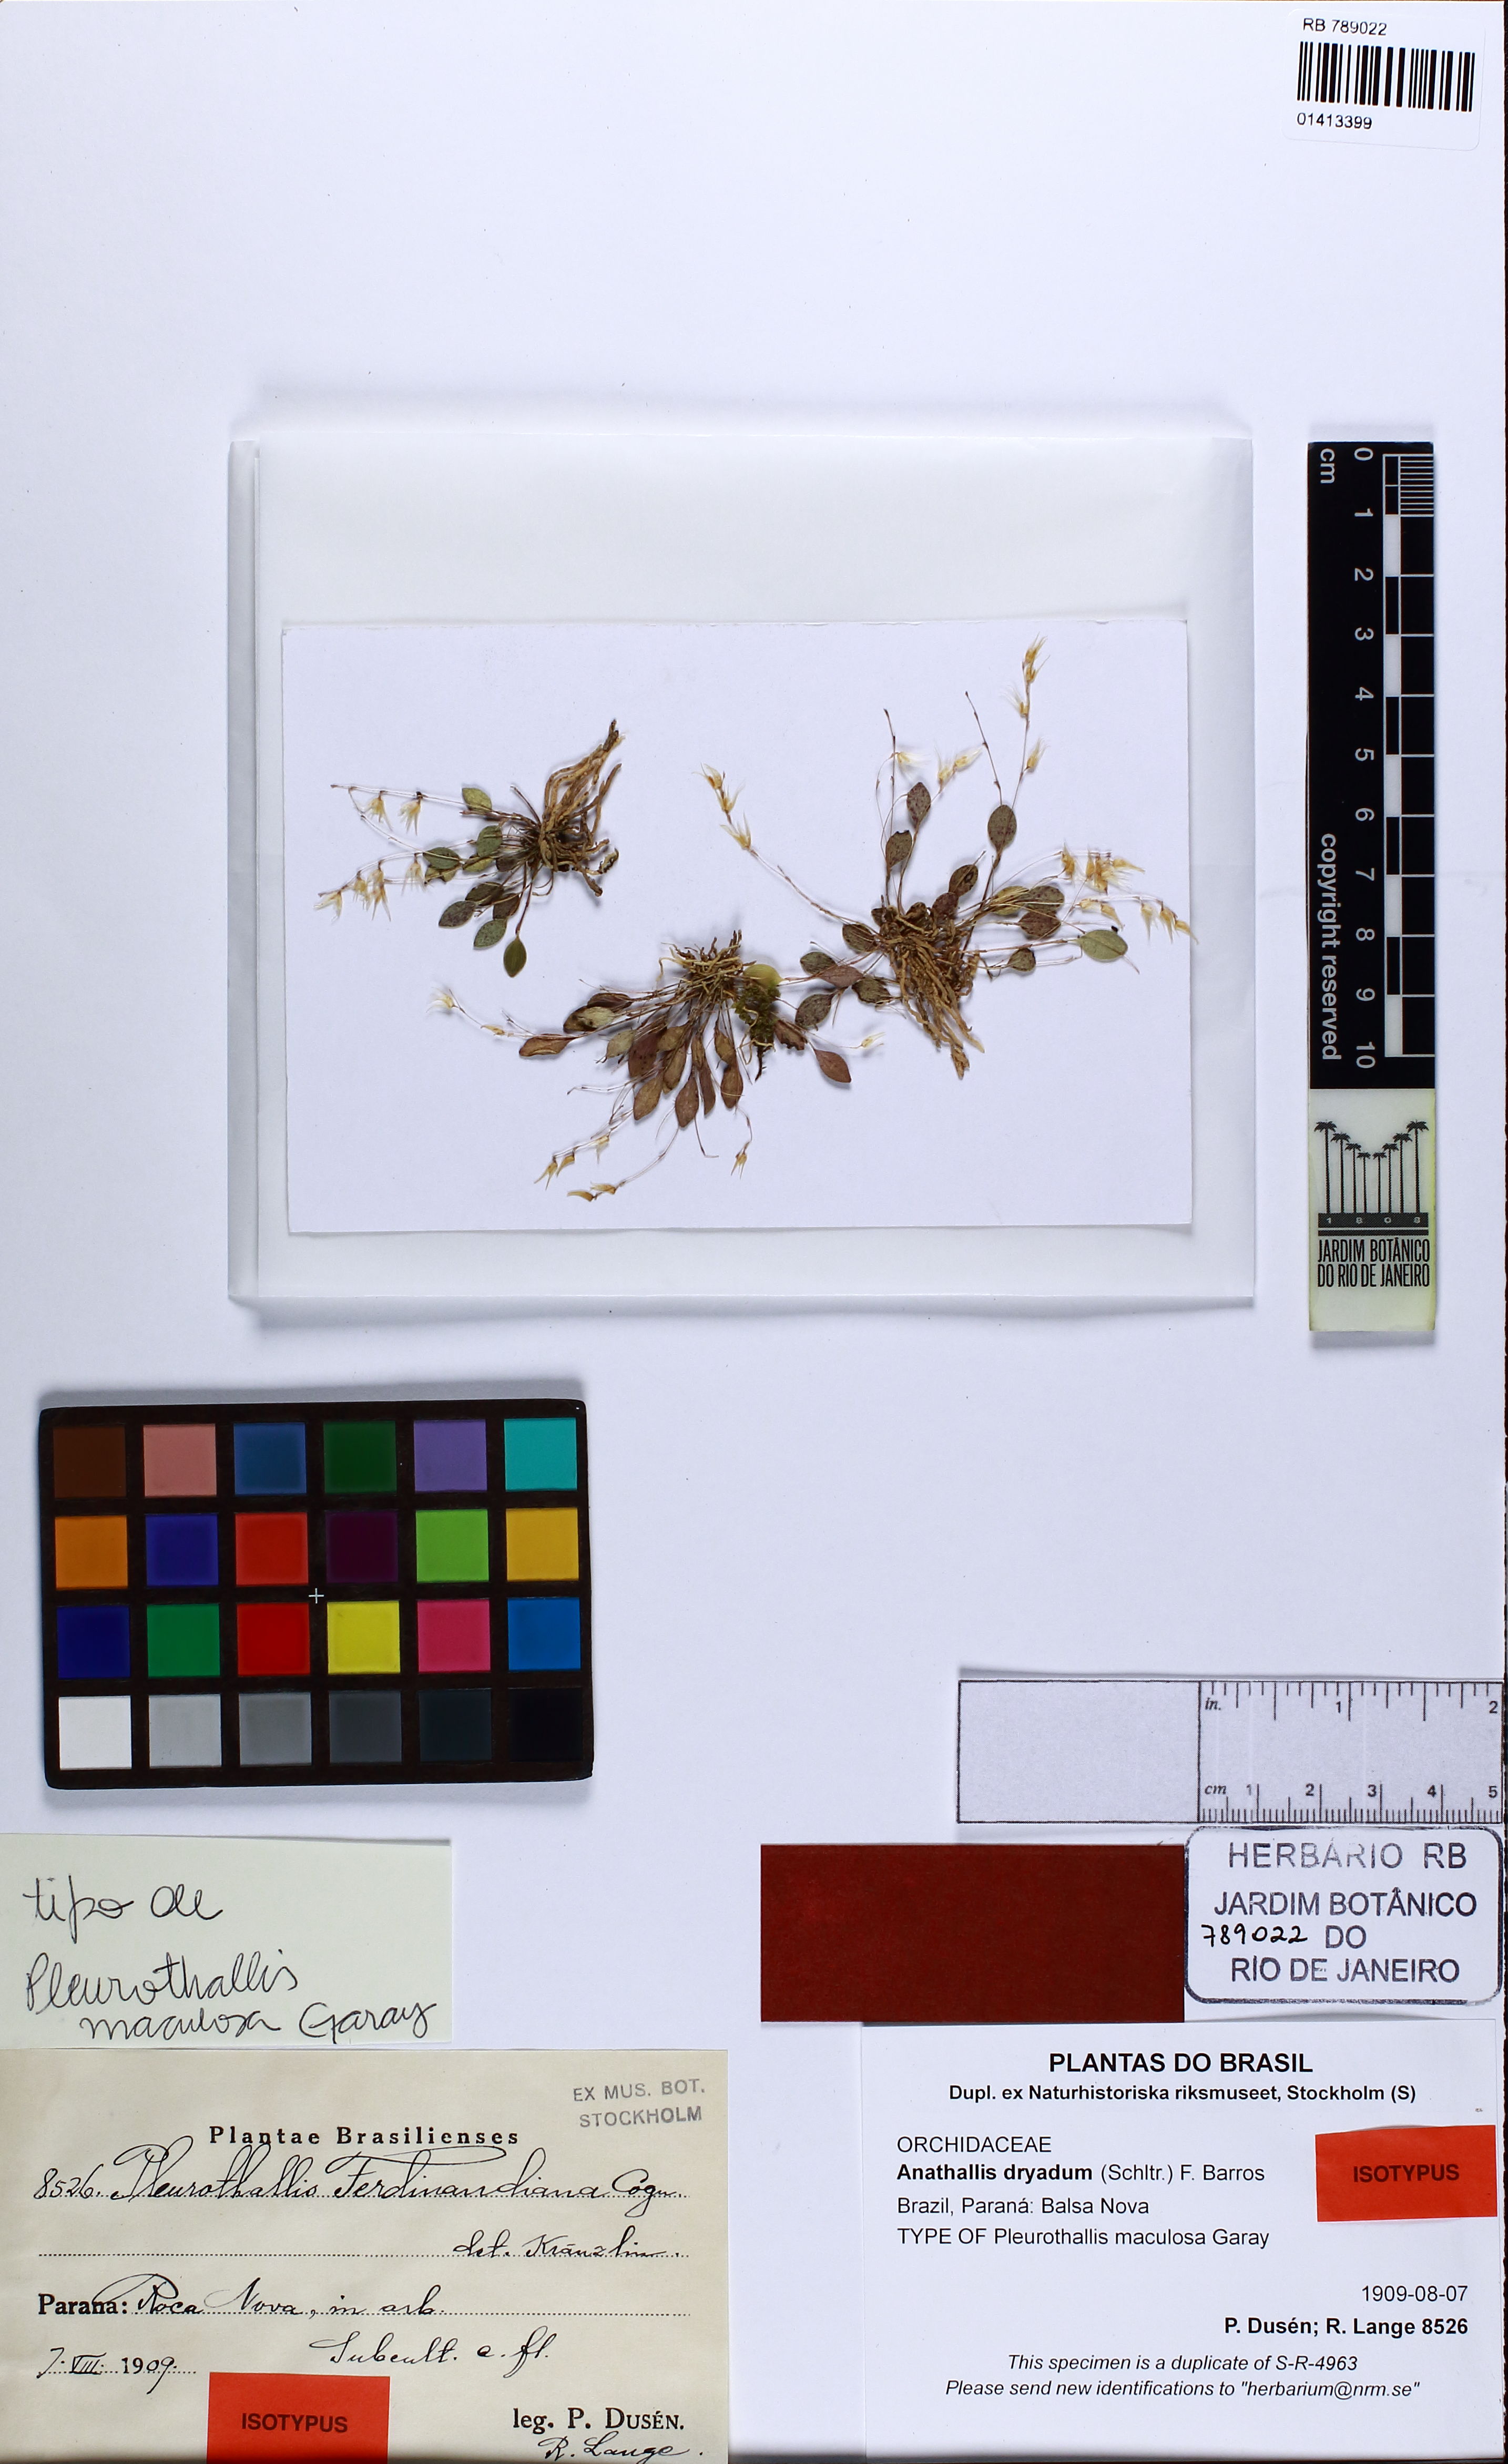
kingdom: Plantae
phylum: Tracheophyta
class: Liliopsida
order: Asparagales
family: Orchidaceae
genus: Anathallis
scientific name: Anathallis dryadum
